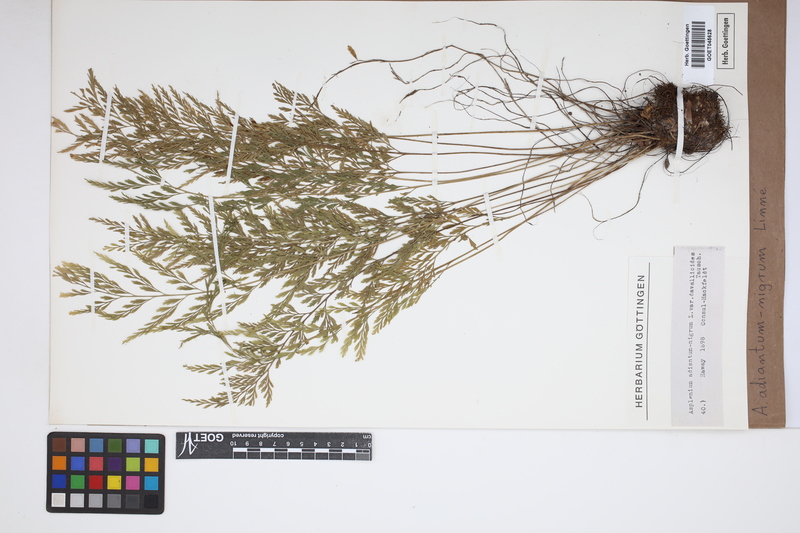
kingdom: Plantae
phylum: Tracheophyta
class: Polypodiopsida
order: Polypodiales
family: Aspleniaceae
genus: Asplenium
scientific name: Asplenium adiantum-nigrum
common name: Black spleenwort
